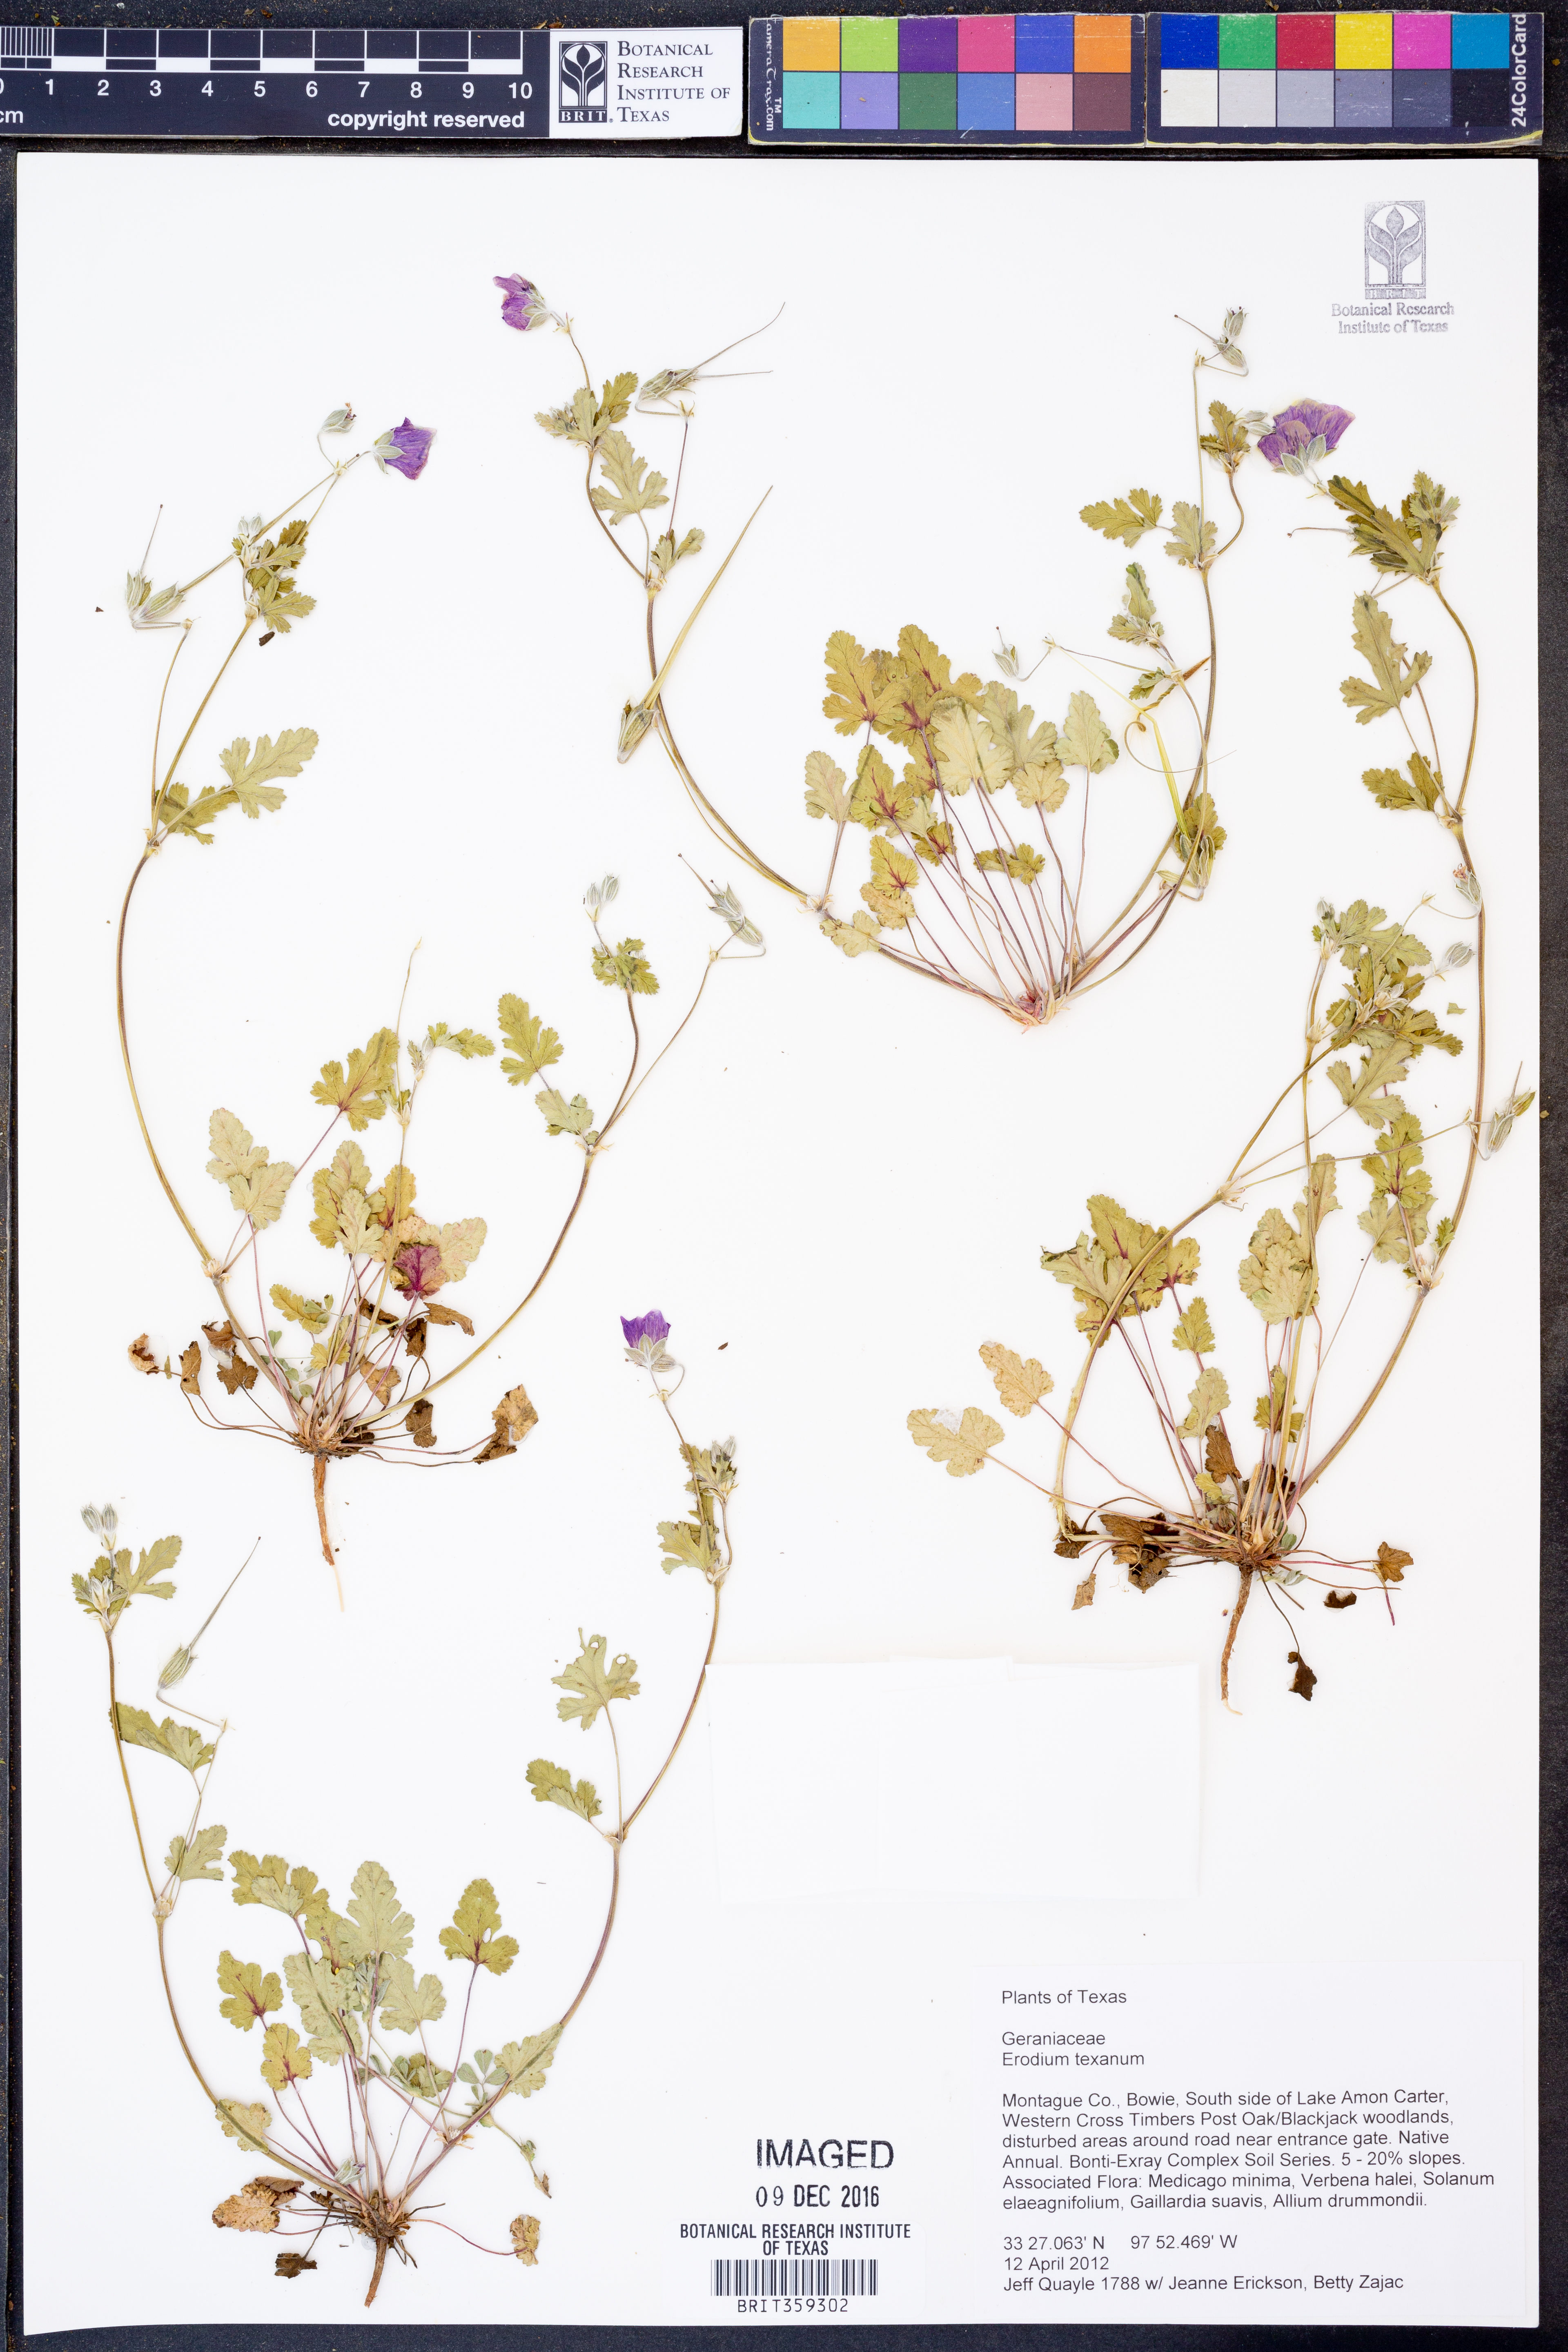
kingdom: Plantae
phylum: Tracheophyta
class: Magnoliopsida
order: Geraniales
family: Geraniaceae
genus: Erodium
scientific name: Erodium texanum
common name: Texas stork's-bill
